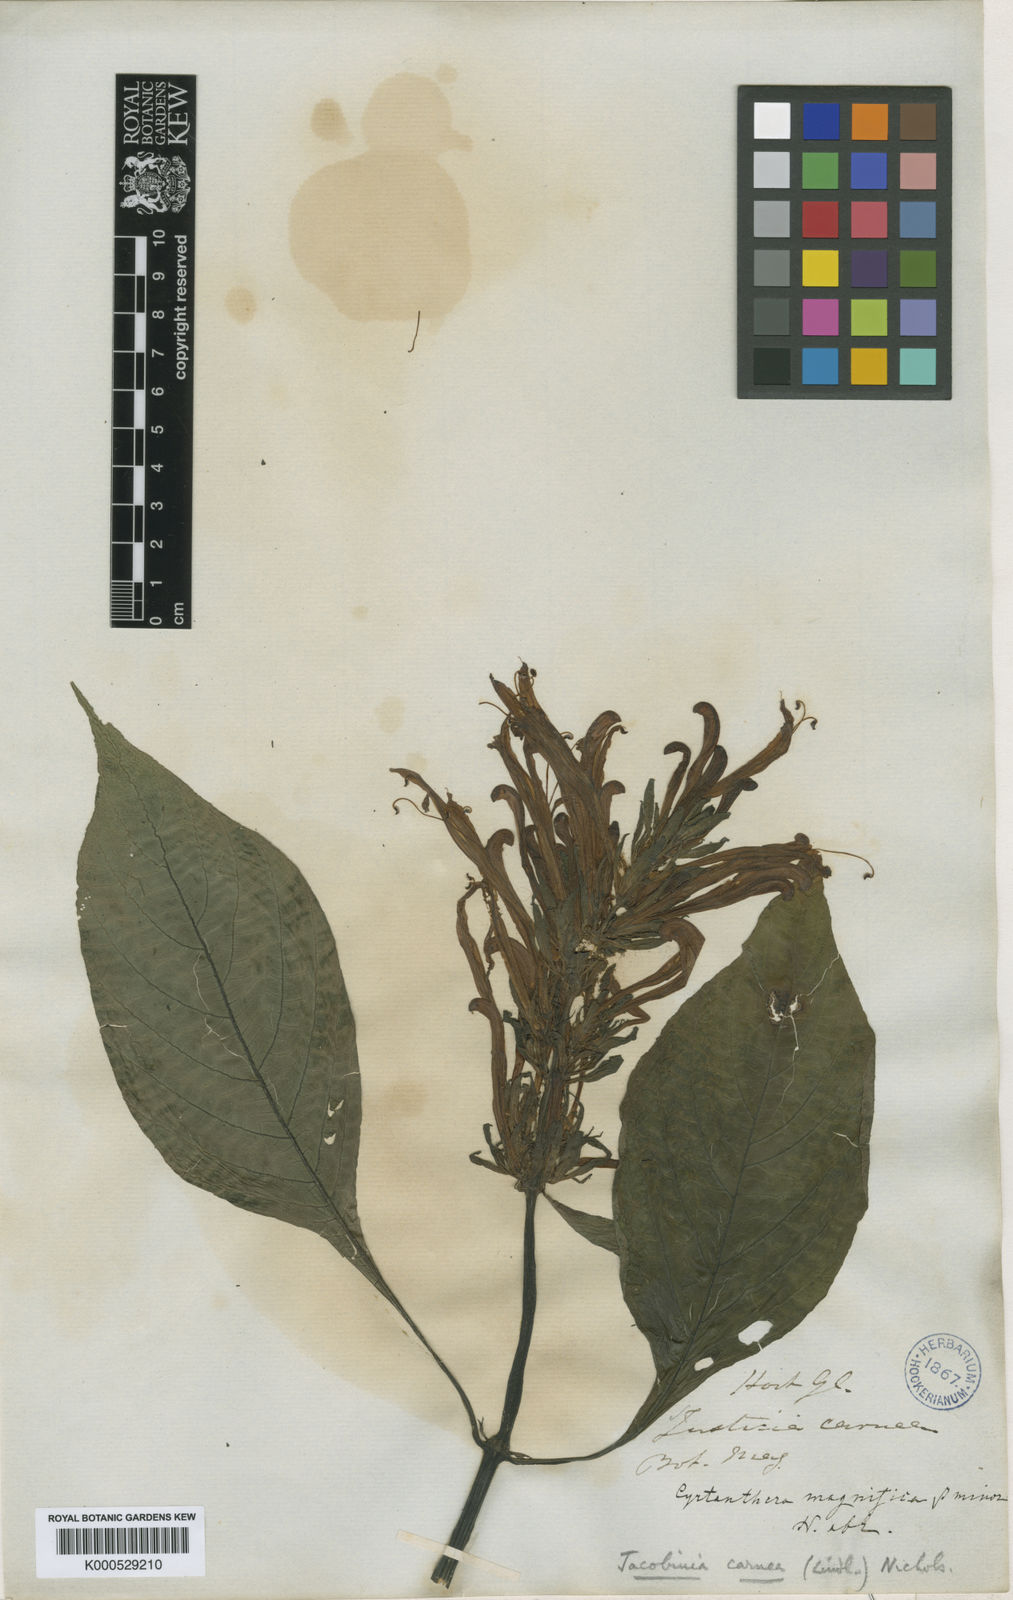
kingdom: Plantae
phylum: Tracheophyta
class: Magnoliopsida
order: Lamiales
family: Acanthaceae
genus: Justicia
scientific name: Justicia carnea
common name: Brazilian-plume
